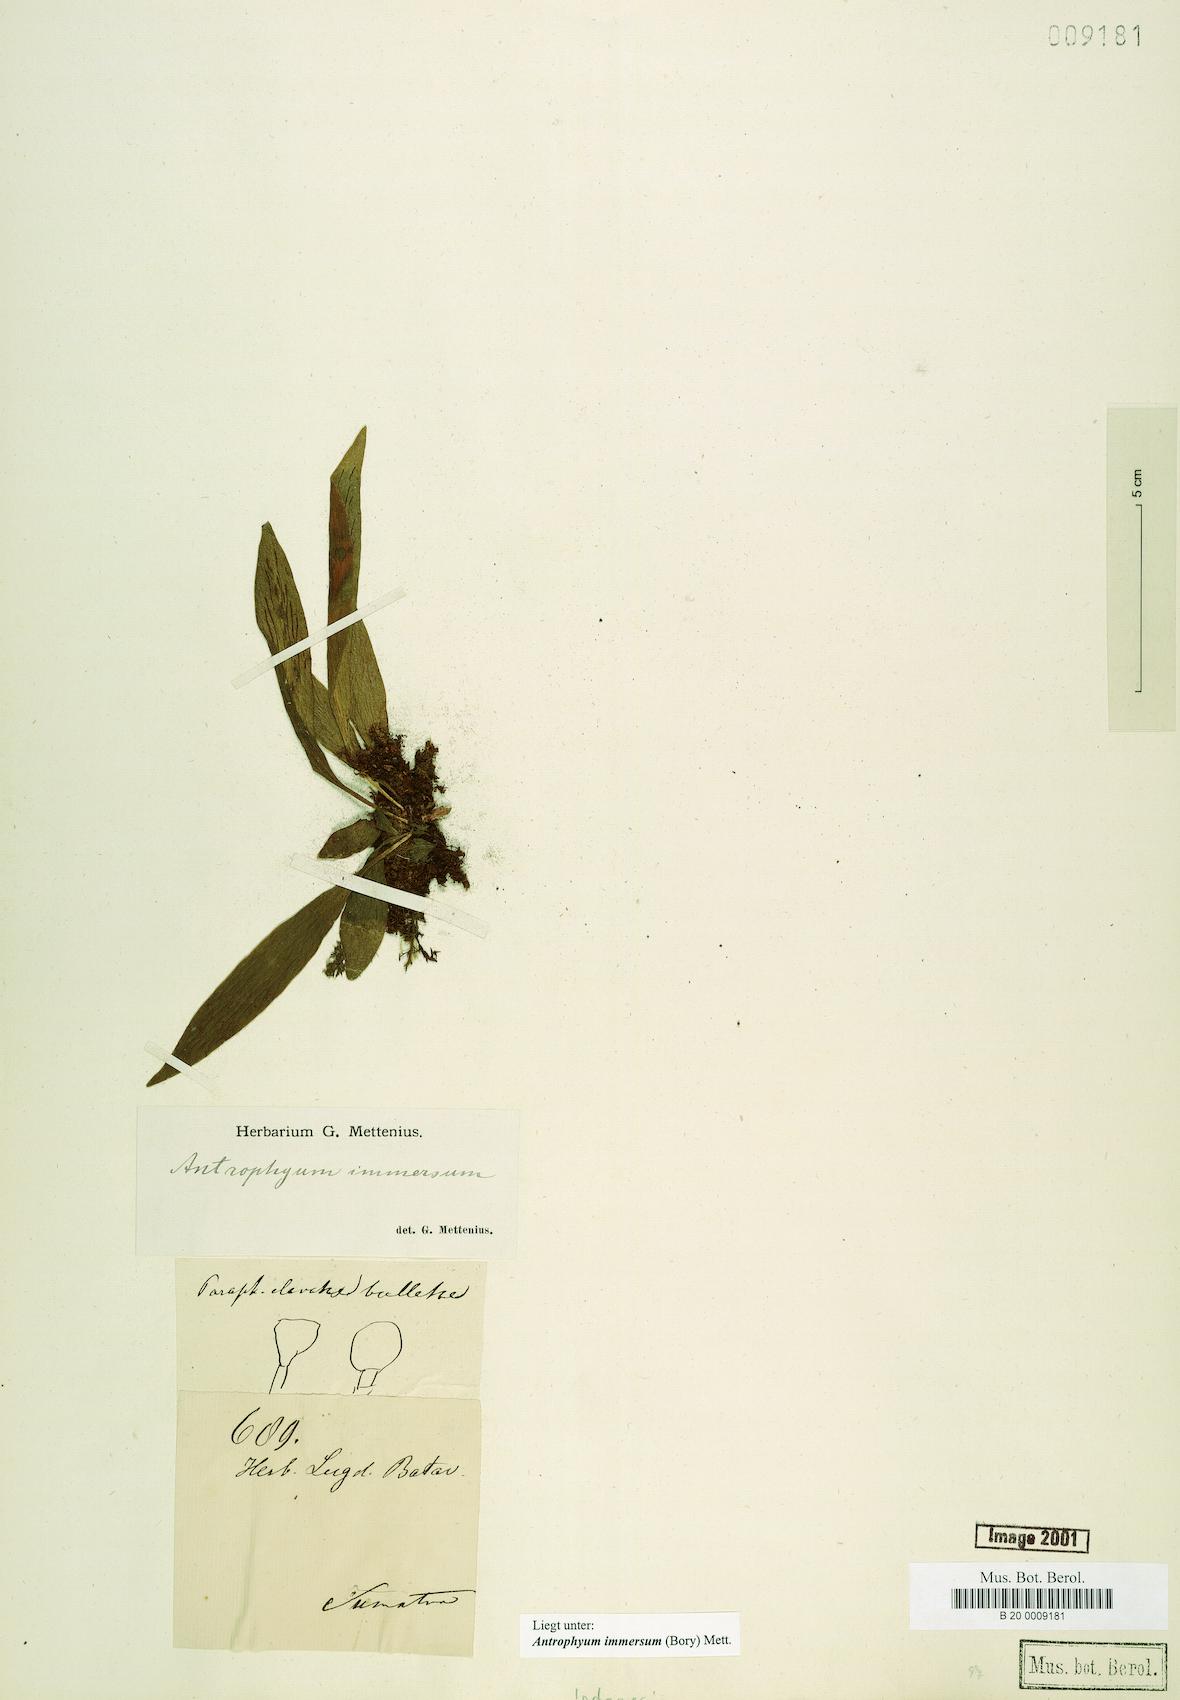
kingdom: Plantae
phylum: Tracheophyta
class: Polypodiopsida
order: Polypodiales
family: Pteridaceae
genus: Antrophyum
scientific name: Antrophyum parvulum
